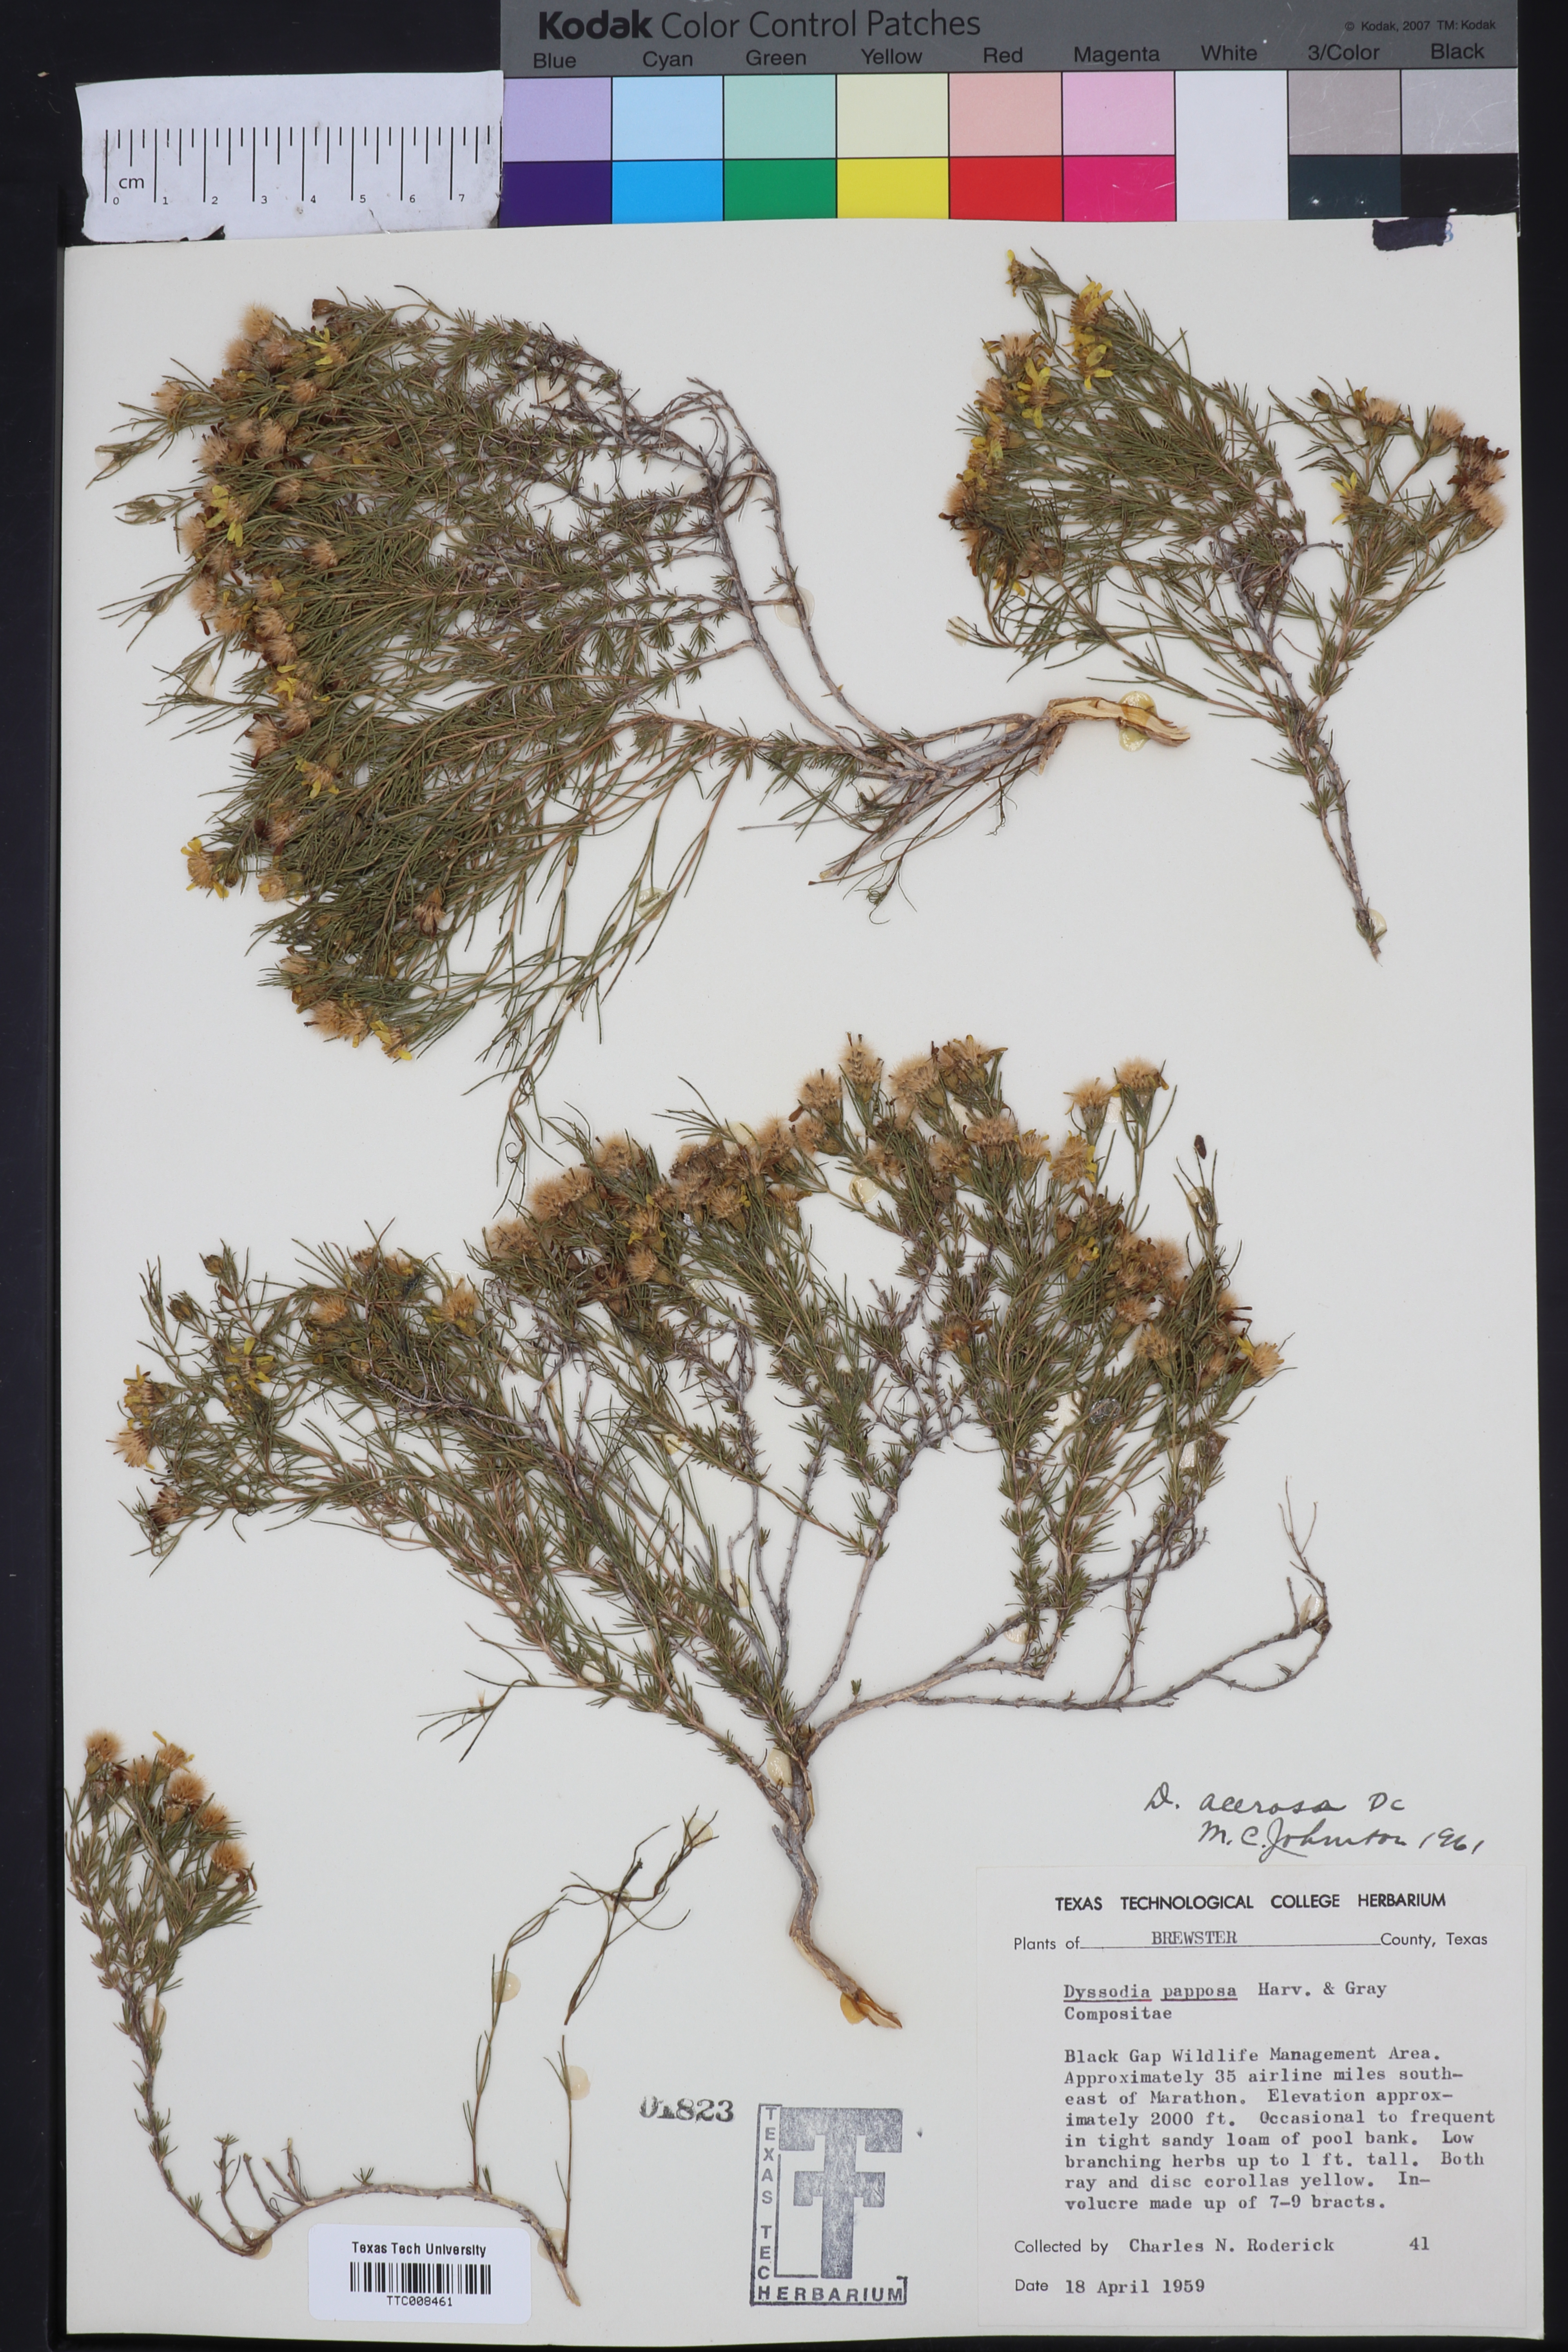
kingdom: Plantae
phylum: Tracheophyta
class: Magnoliopsida
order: Asterales
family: Asteraceae
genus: Thymophylla
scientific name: Thymophylla acerosa
